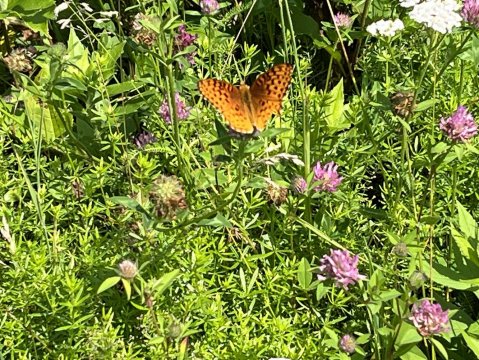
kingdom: Animalia
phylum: Arthropoda
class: Insecta
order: Lepidoptera
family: Nymphalidae
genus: Speyeria
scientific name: Speyeria aphrodite
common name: Aphrodite Fritillary
